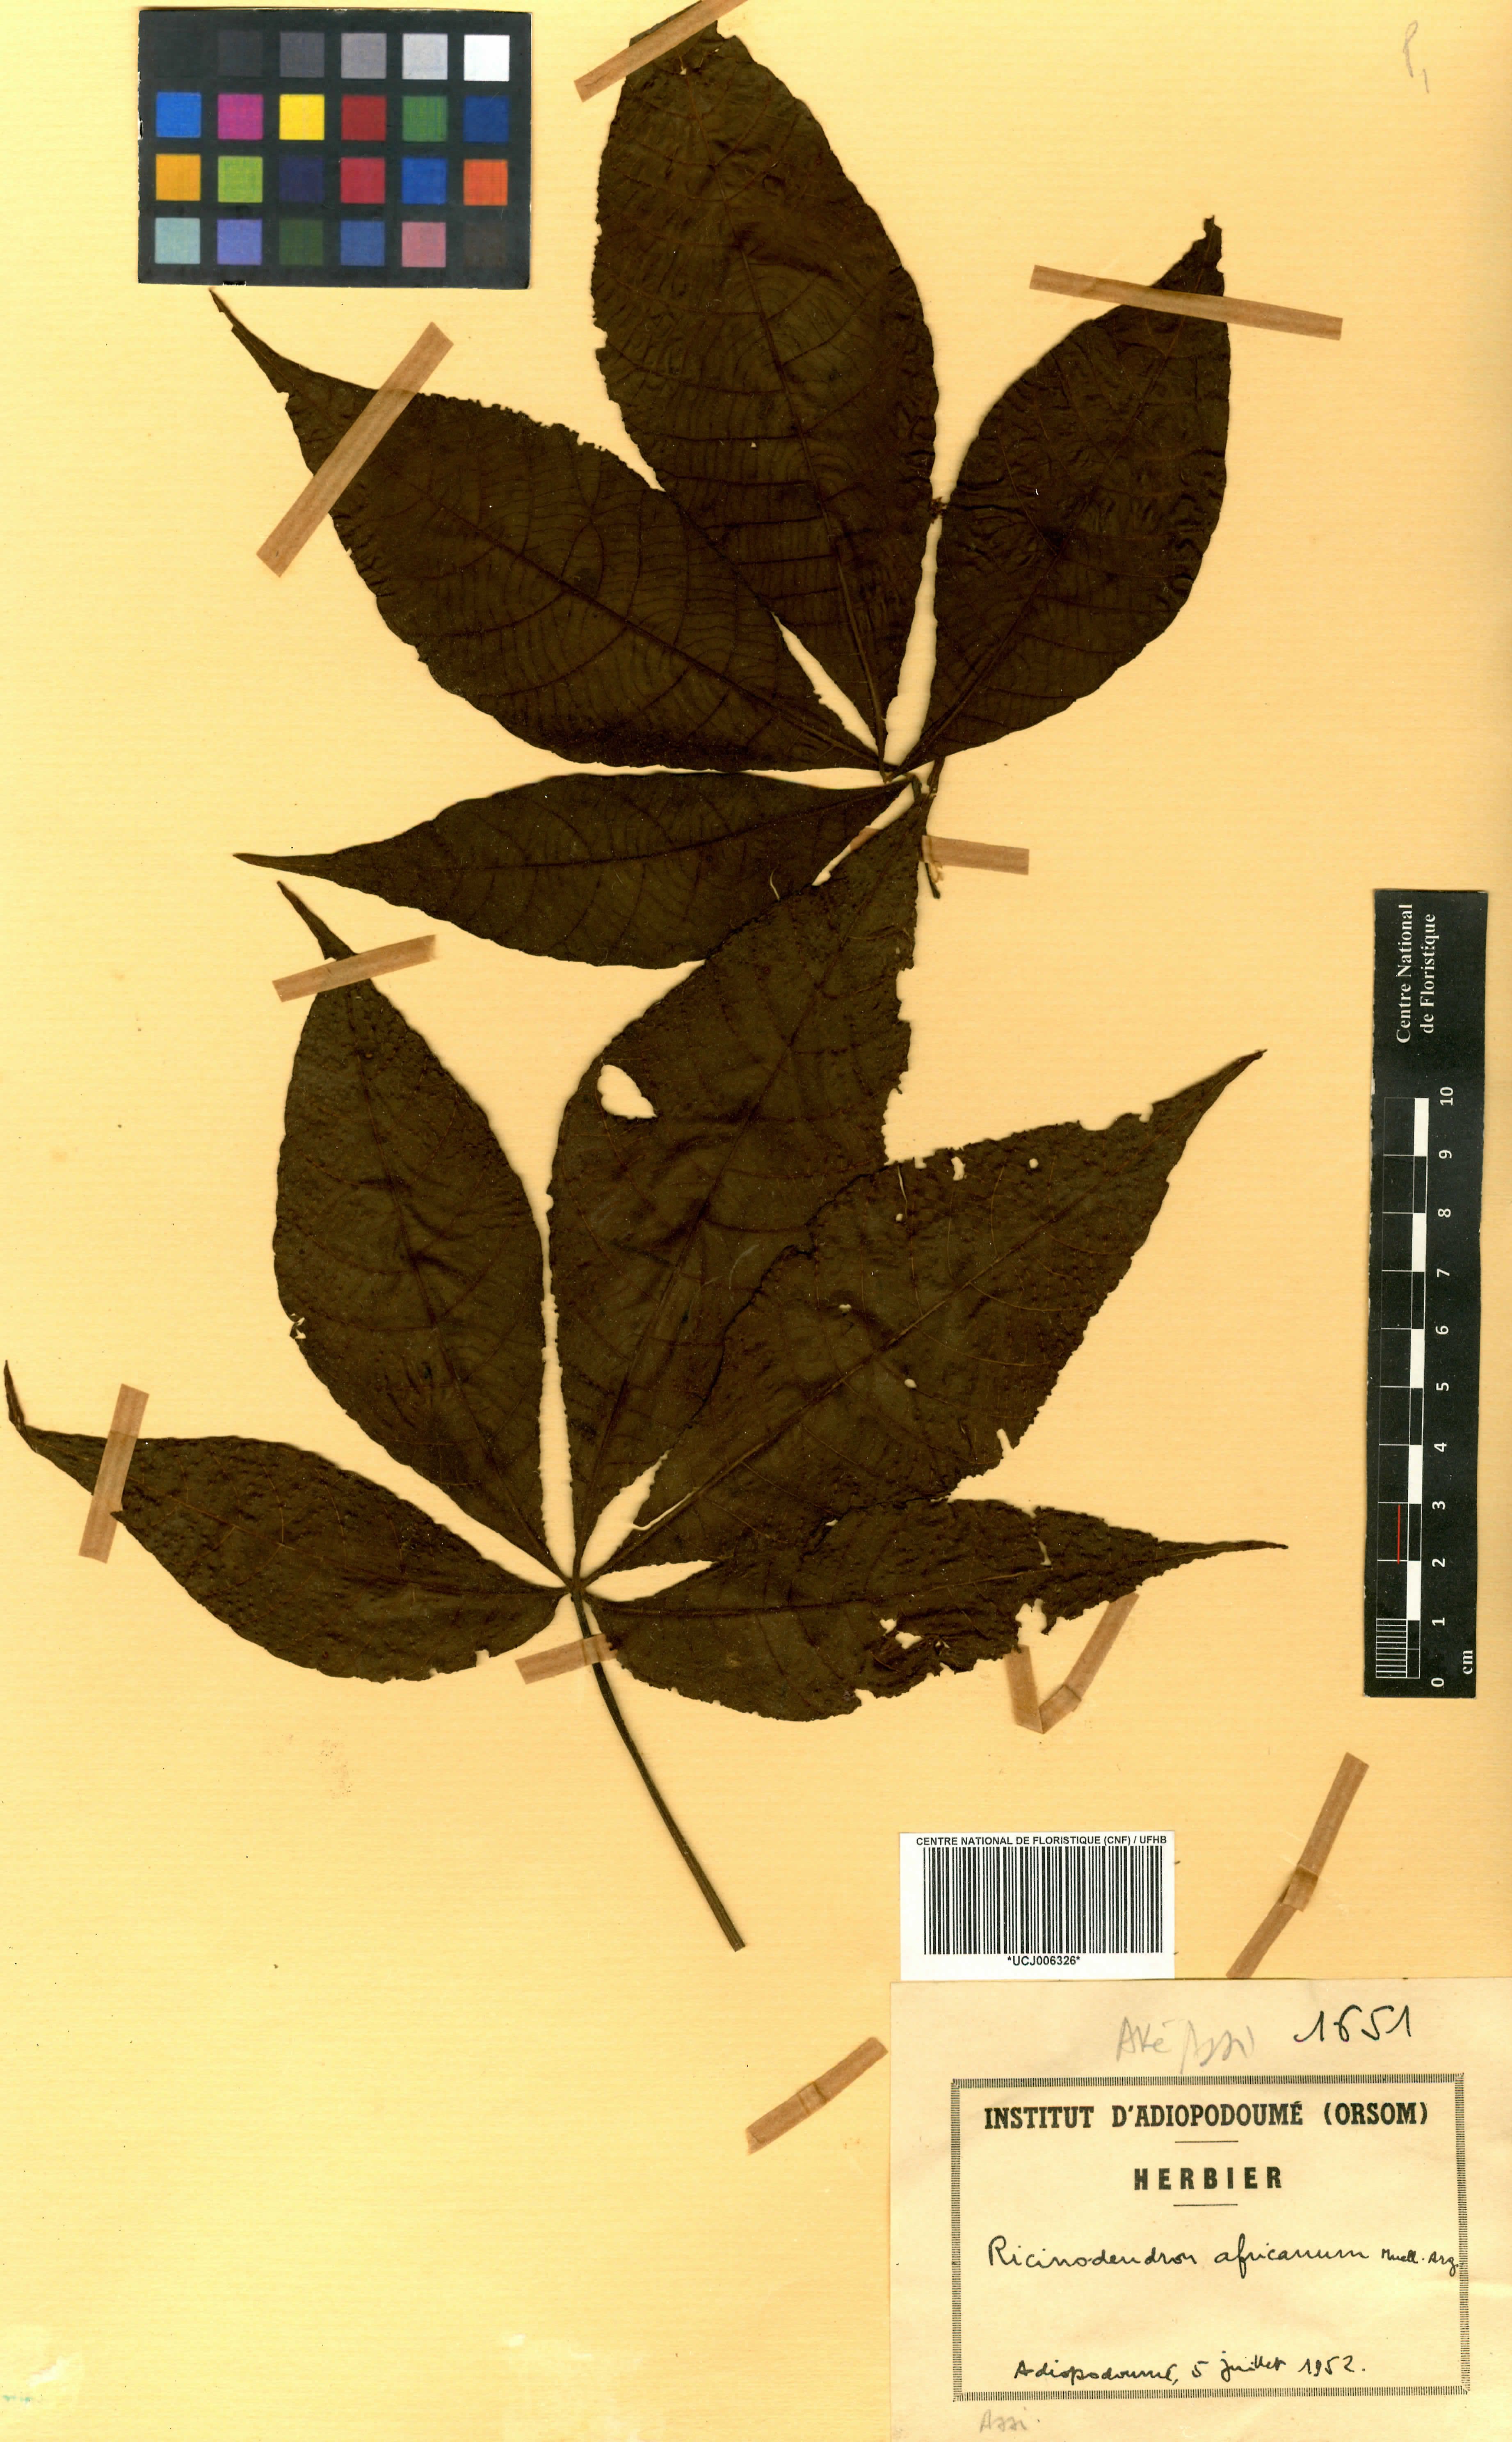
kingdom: Plantae
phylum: Tracheophyta
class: Magnoliopsida
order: Malpighiales
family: Euphorbiaceae
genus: Ricinodendron
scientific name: Ricinodendron heudelotii
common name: African nut-tree
